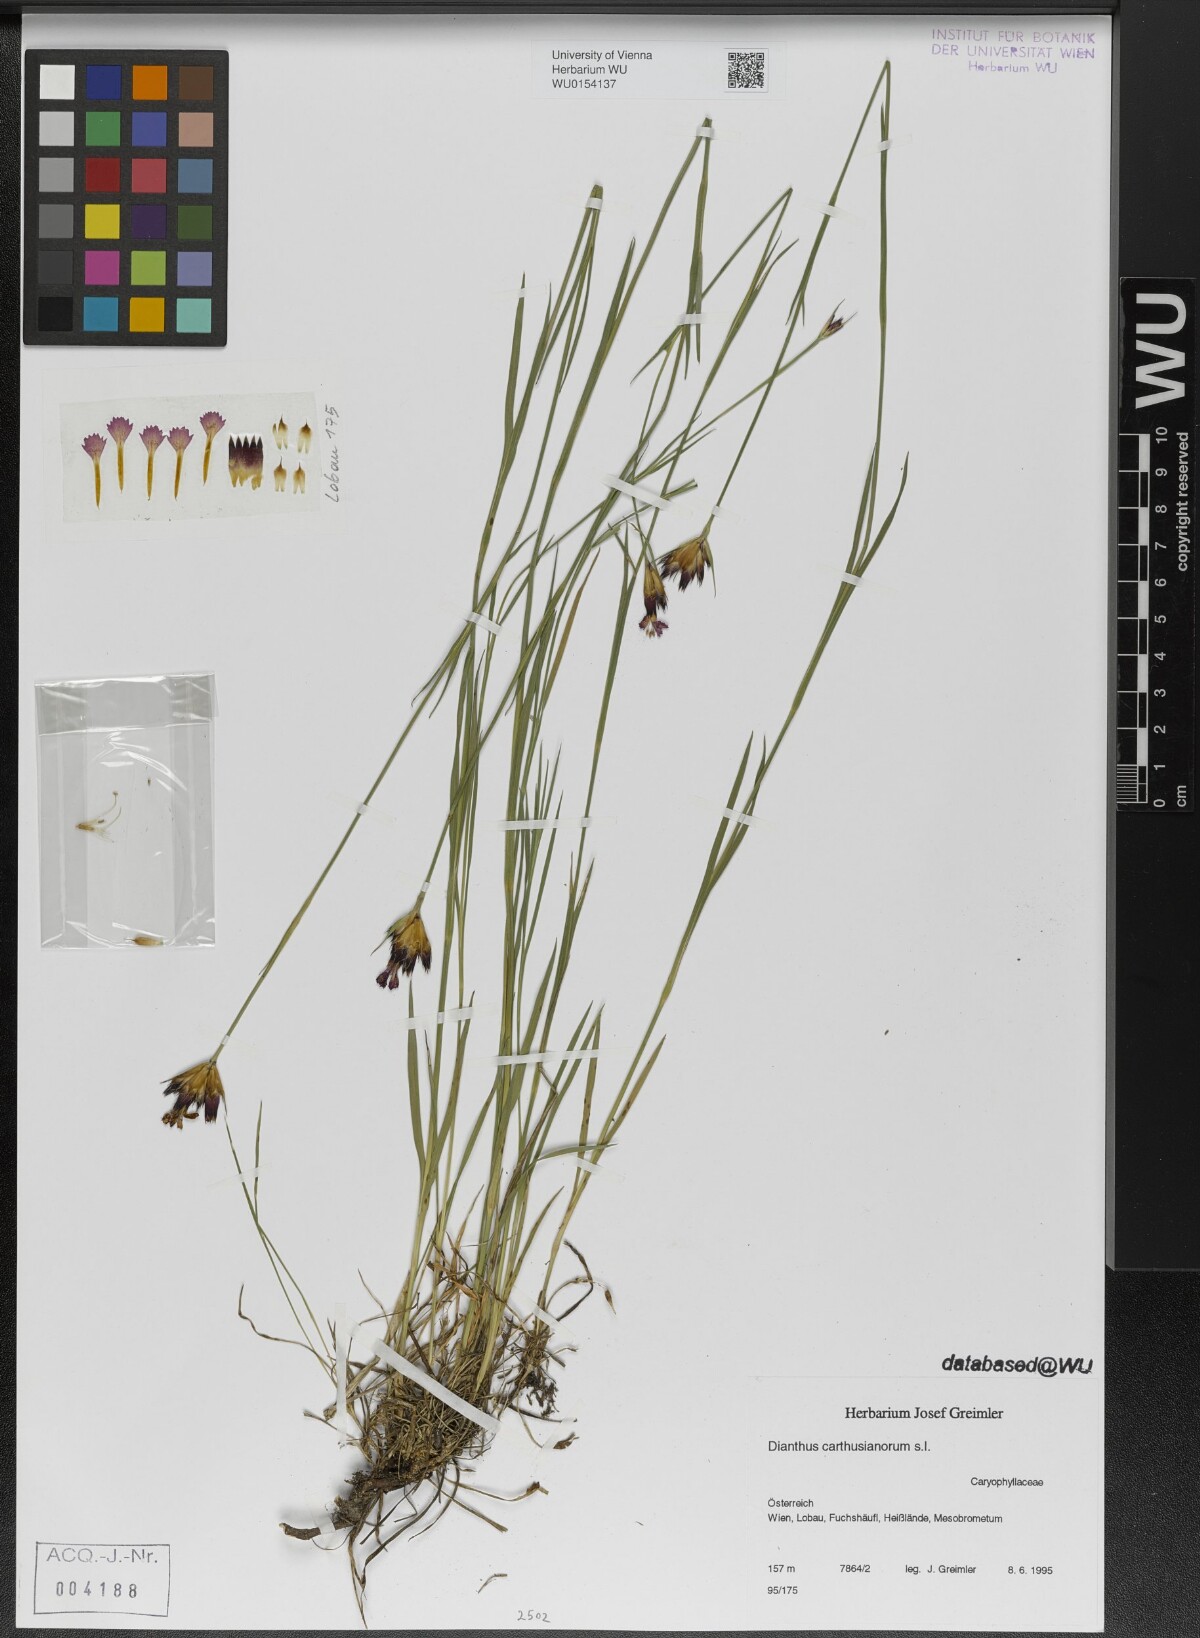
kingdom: Plantae
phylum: Tracheophyta
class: Magnoliopsida
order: Caryophyllales
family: Caryophyllaceae
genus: Dianthus
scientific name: Dianthus carthusianorum
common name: Carthusian pink
